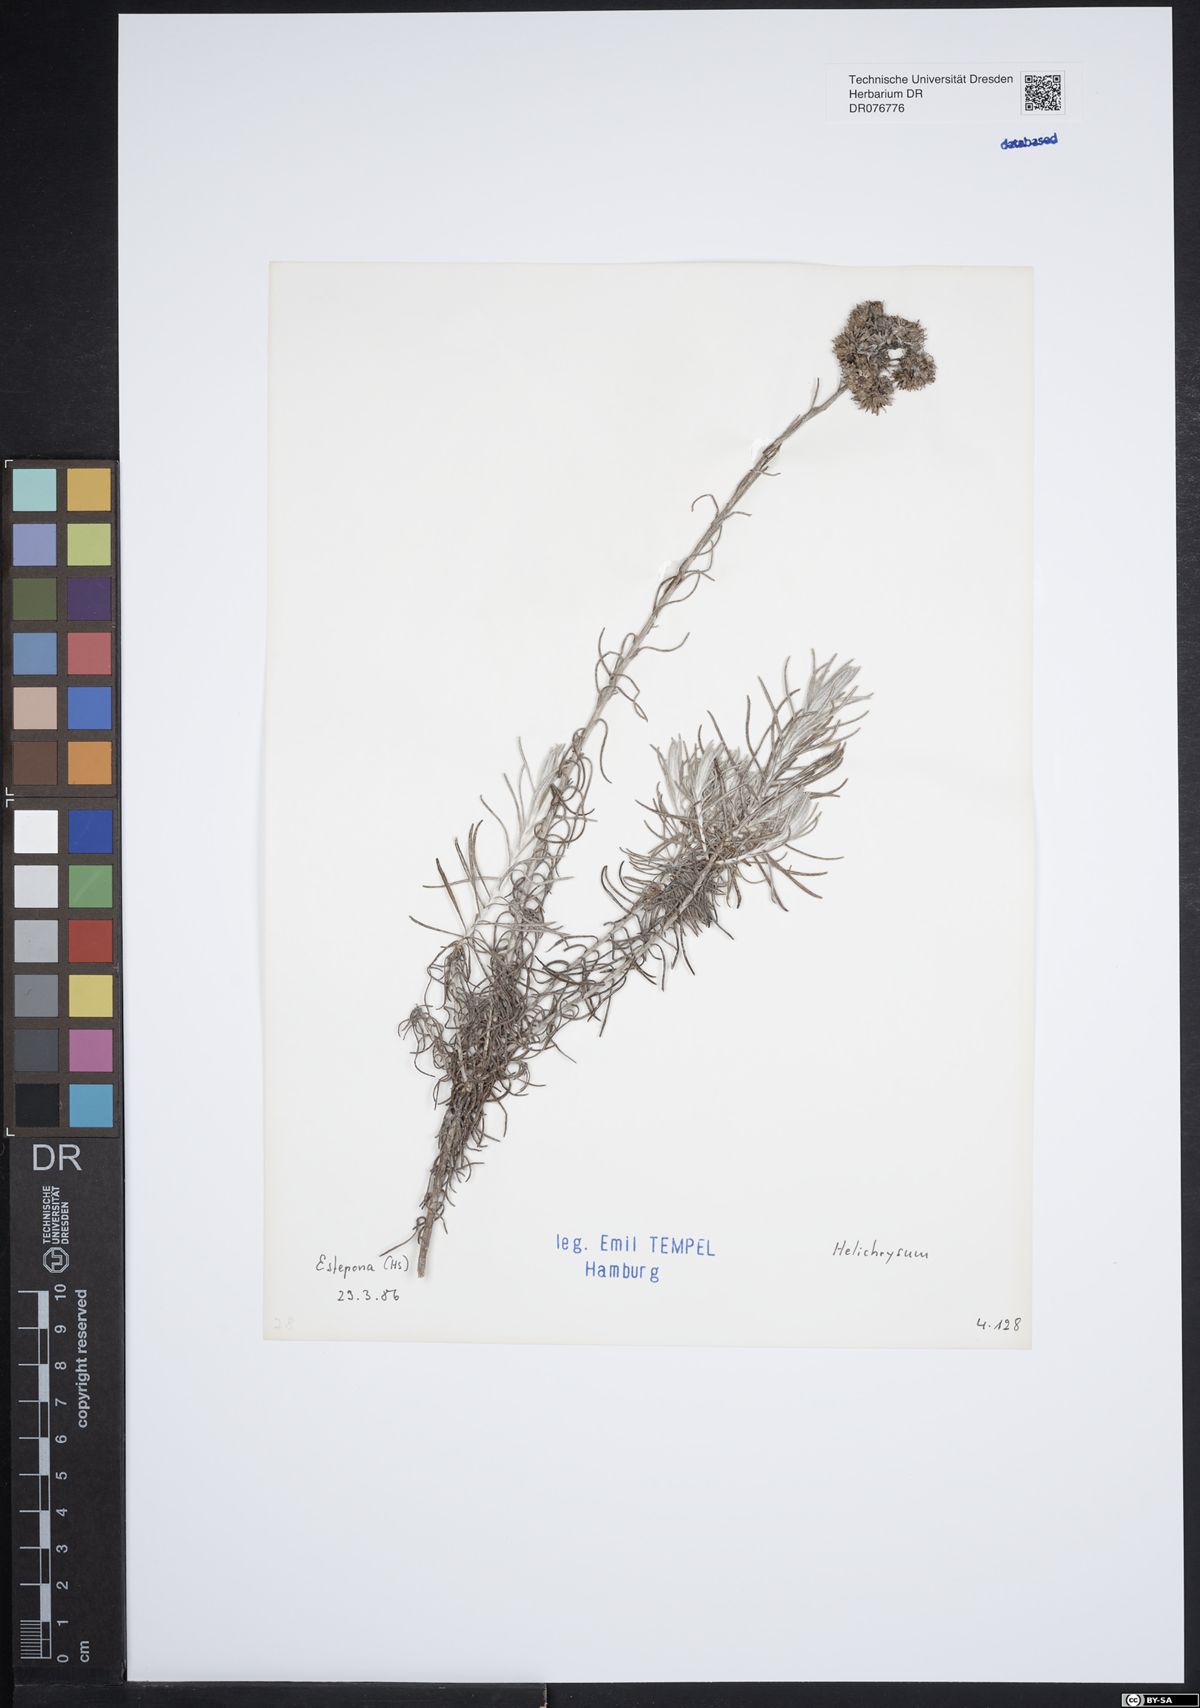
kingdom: Plantae
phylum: Tracheophyta
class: Magnoliopsida
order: Asterales
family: Asteraceae
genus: Helichrysum
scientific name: Helichrysum
